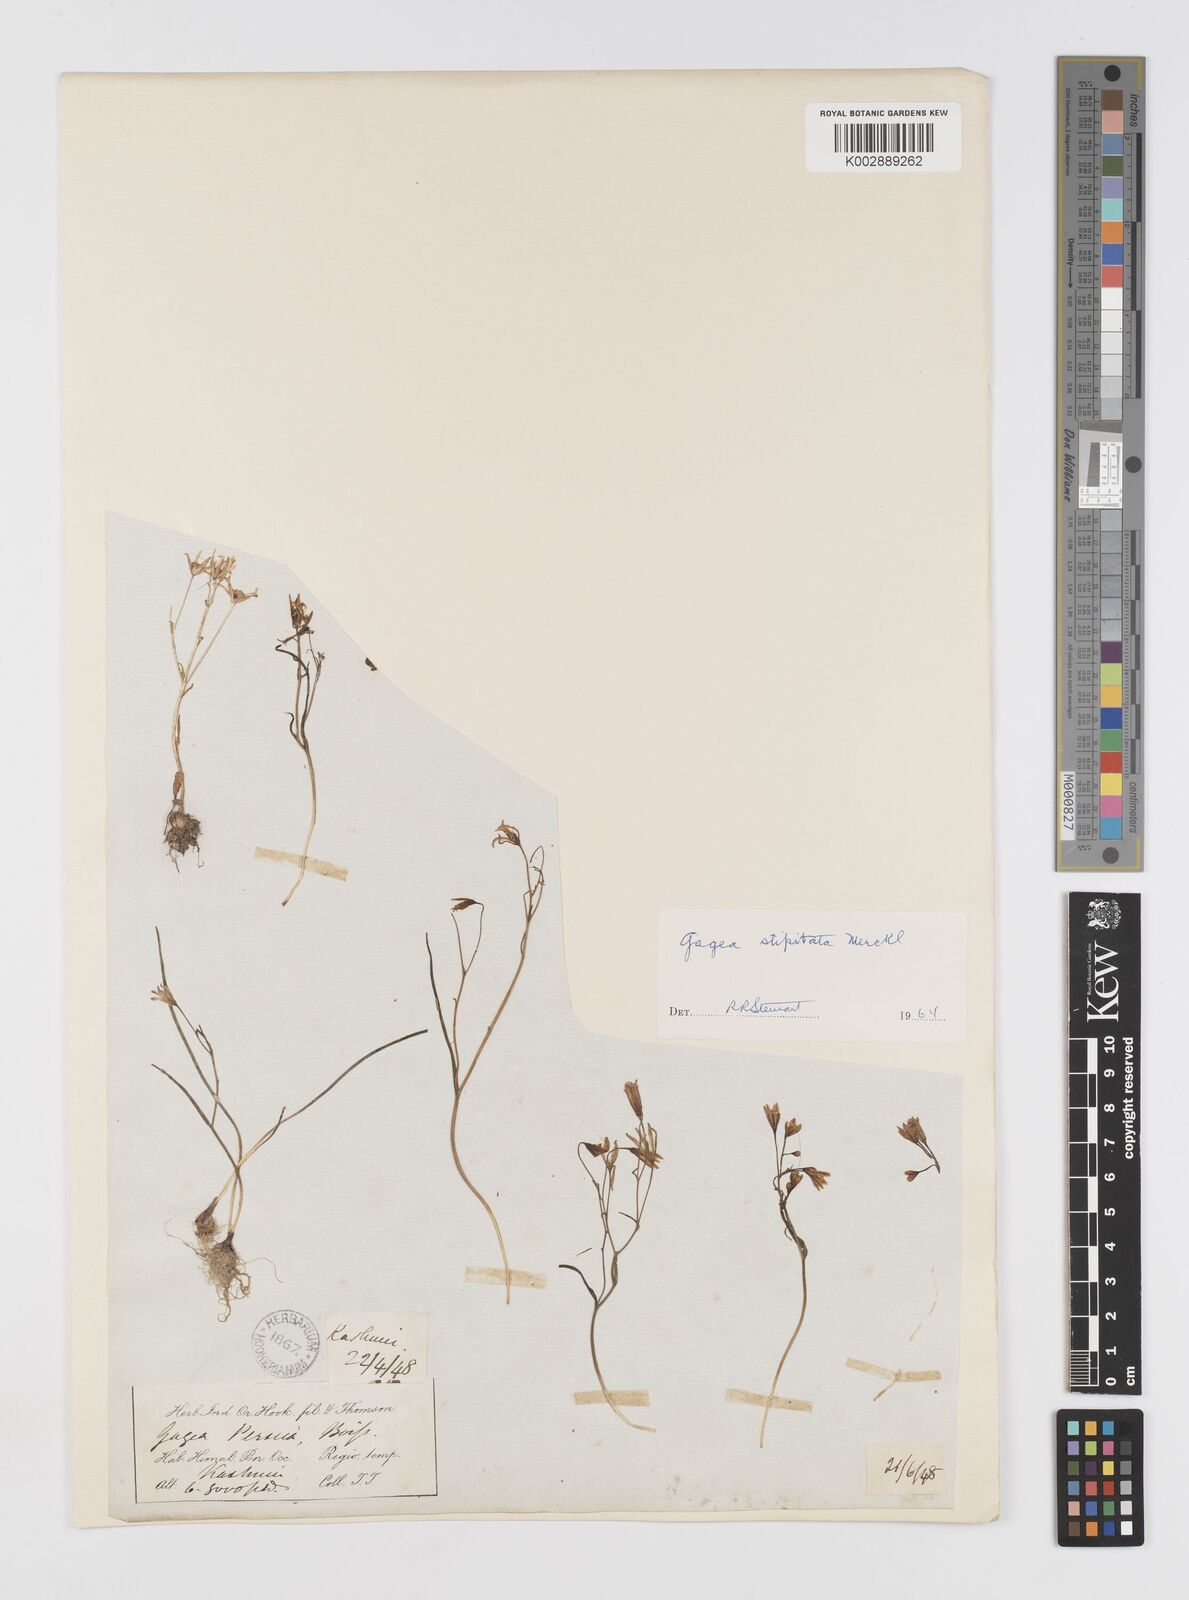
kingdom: Plantae
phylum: Tracheophyta
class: Liliopsida
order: Liliales
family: Liliaceae
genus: Gagea
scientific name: Gagea kunawurensis
